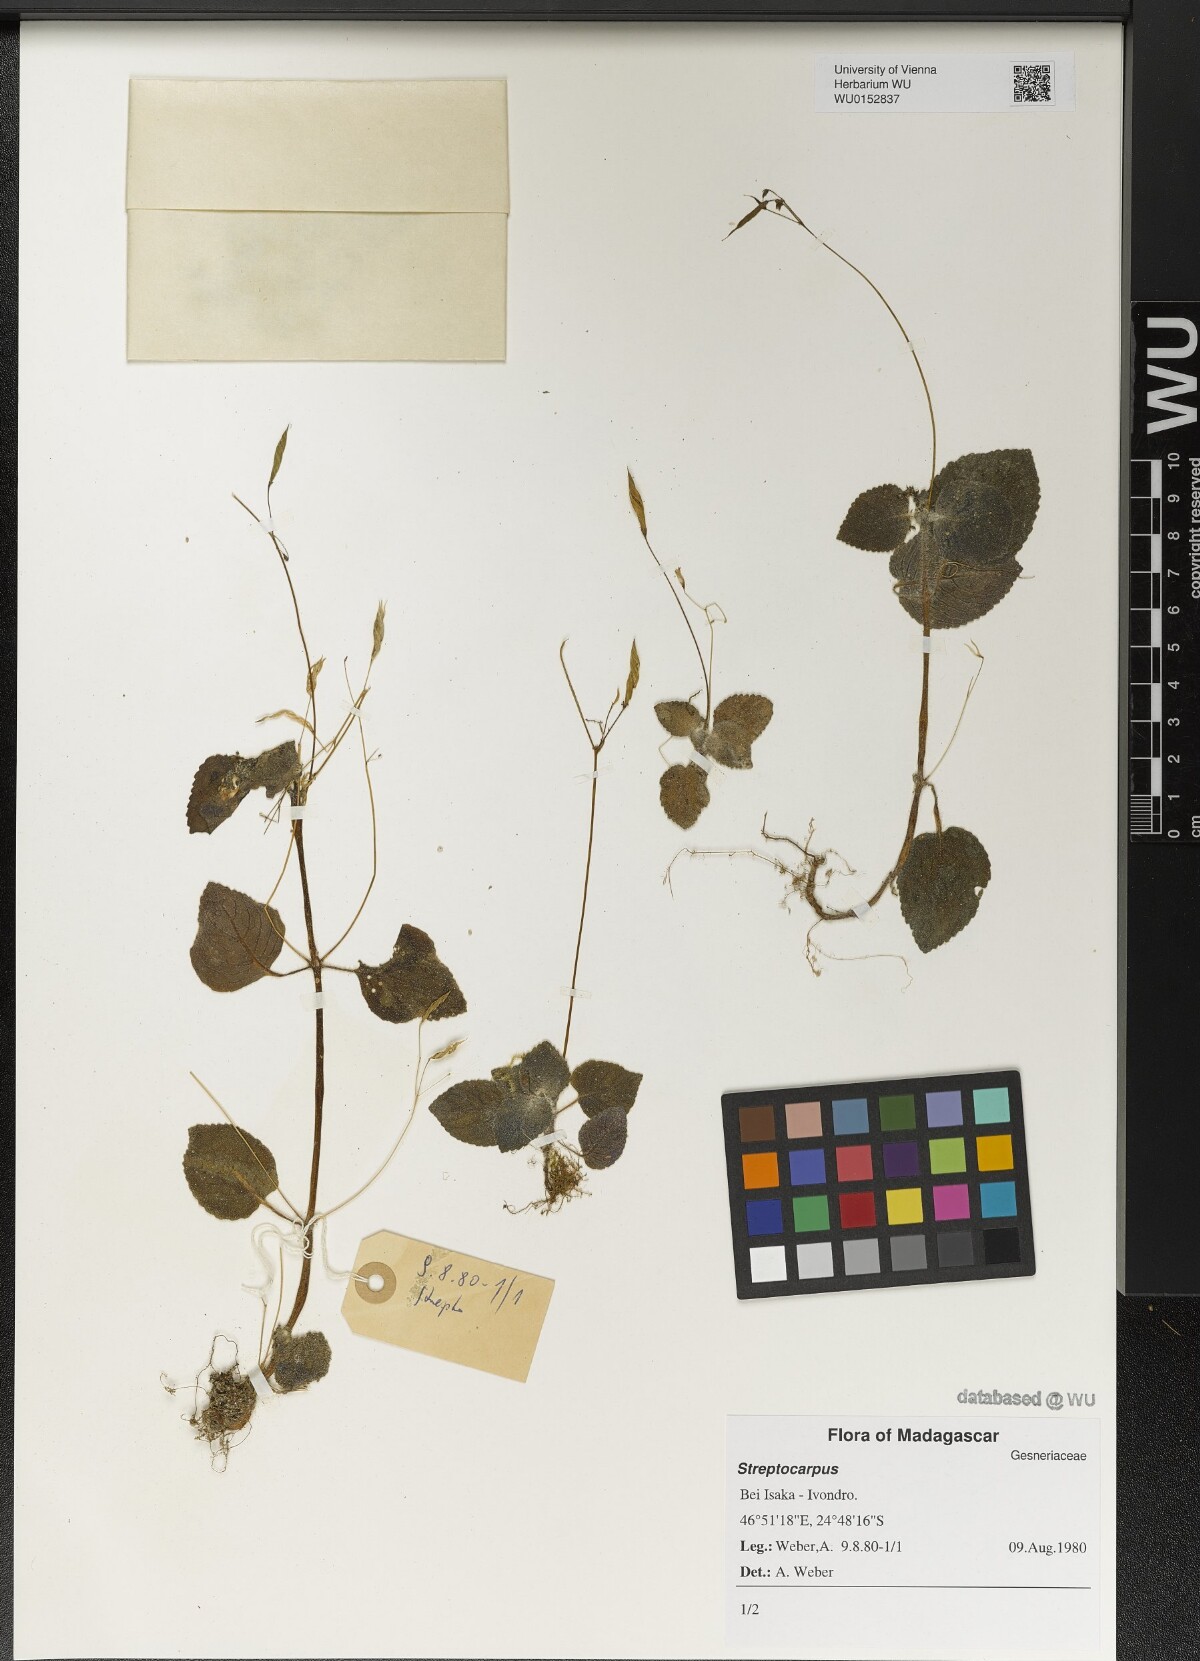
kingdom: Plantae
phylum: Tracheophyta
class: Magnoliopsida
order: Lamiales
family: Gesneriaceae
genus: Streptocarpus
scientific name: Streptocarpus
